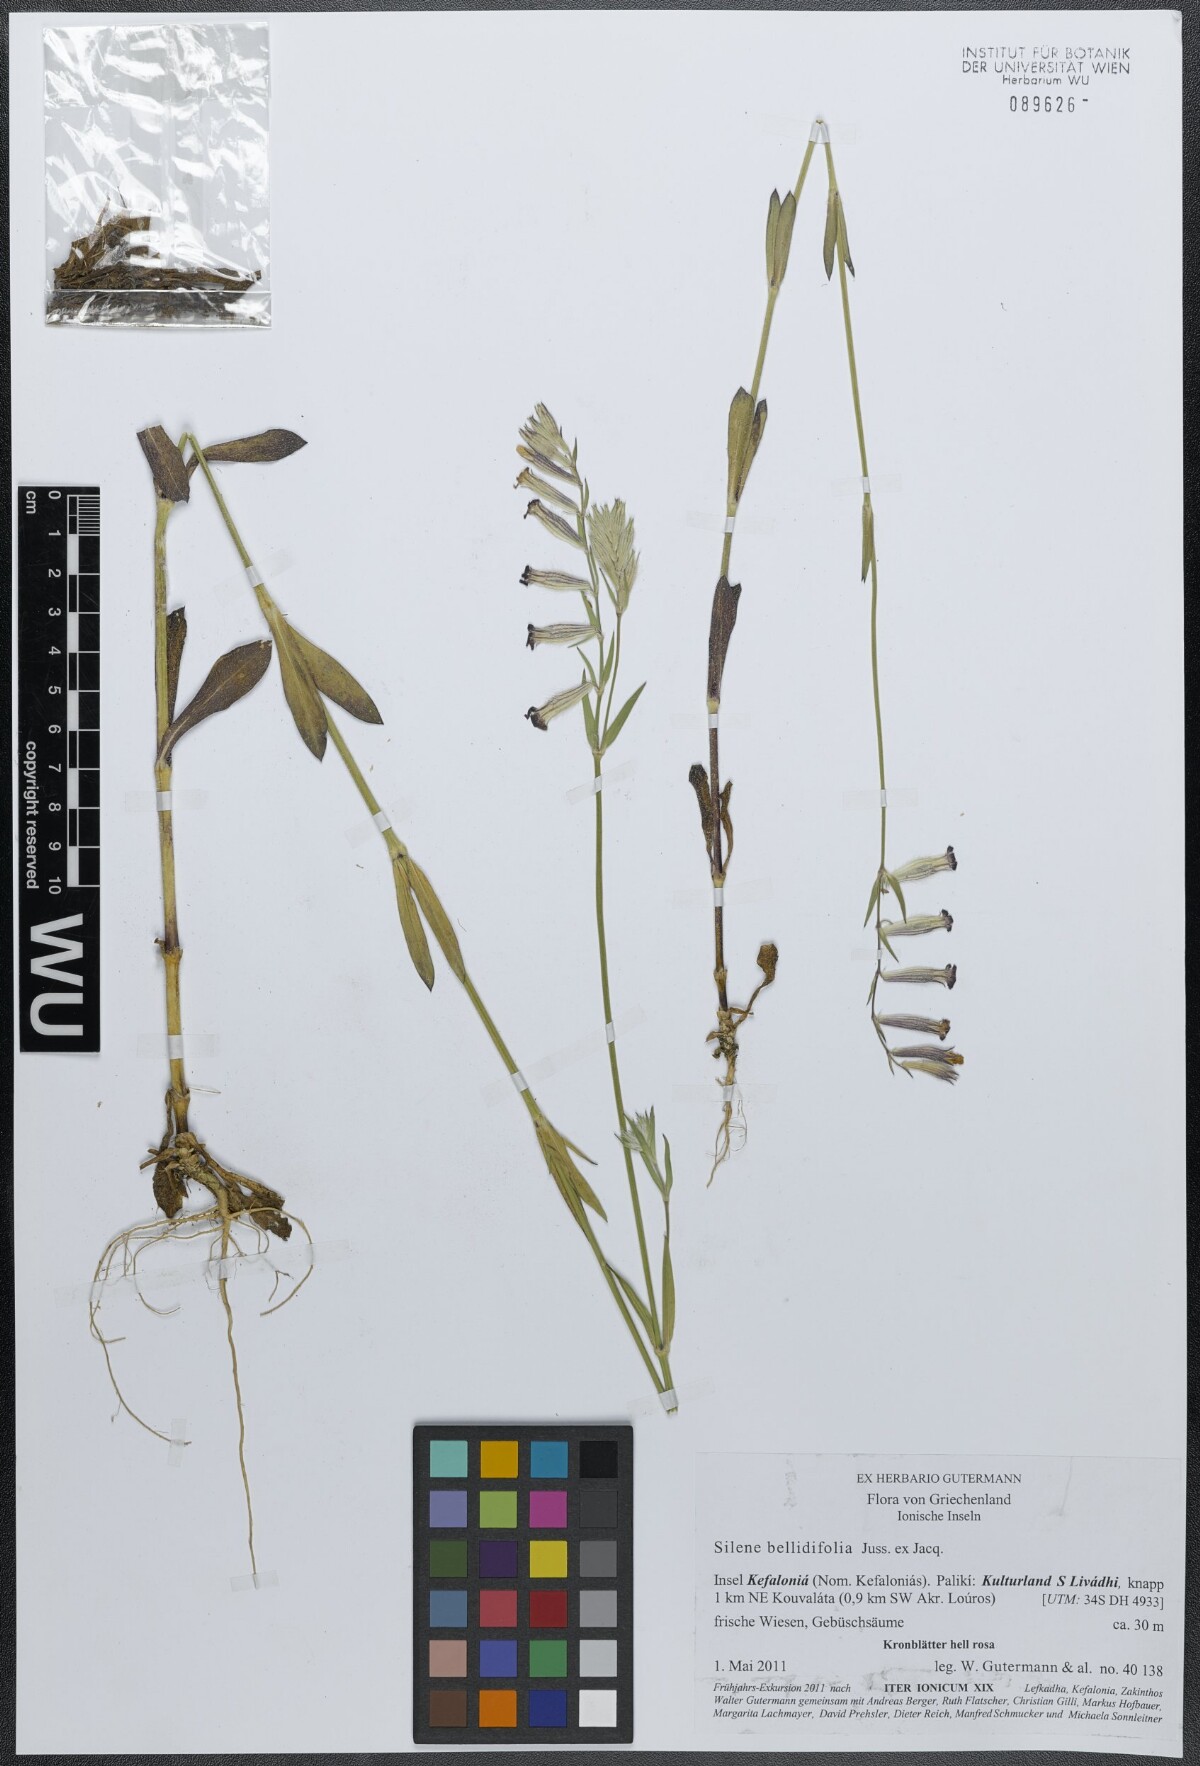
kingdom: Plantae
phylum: Tracheophyta
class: Magnoliopsida
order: Caryophyllales
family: Caryophyllaceae
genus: Silene
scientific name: Silene bellidifolia
